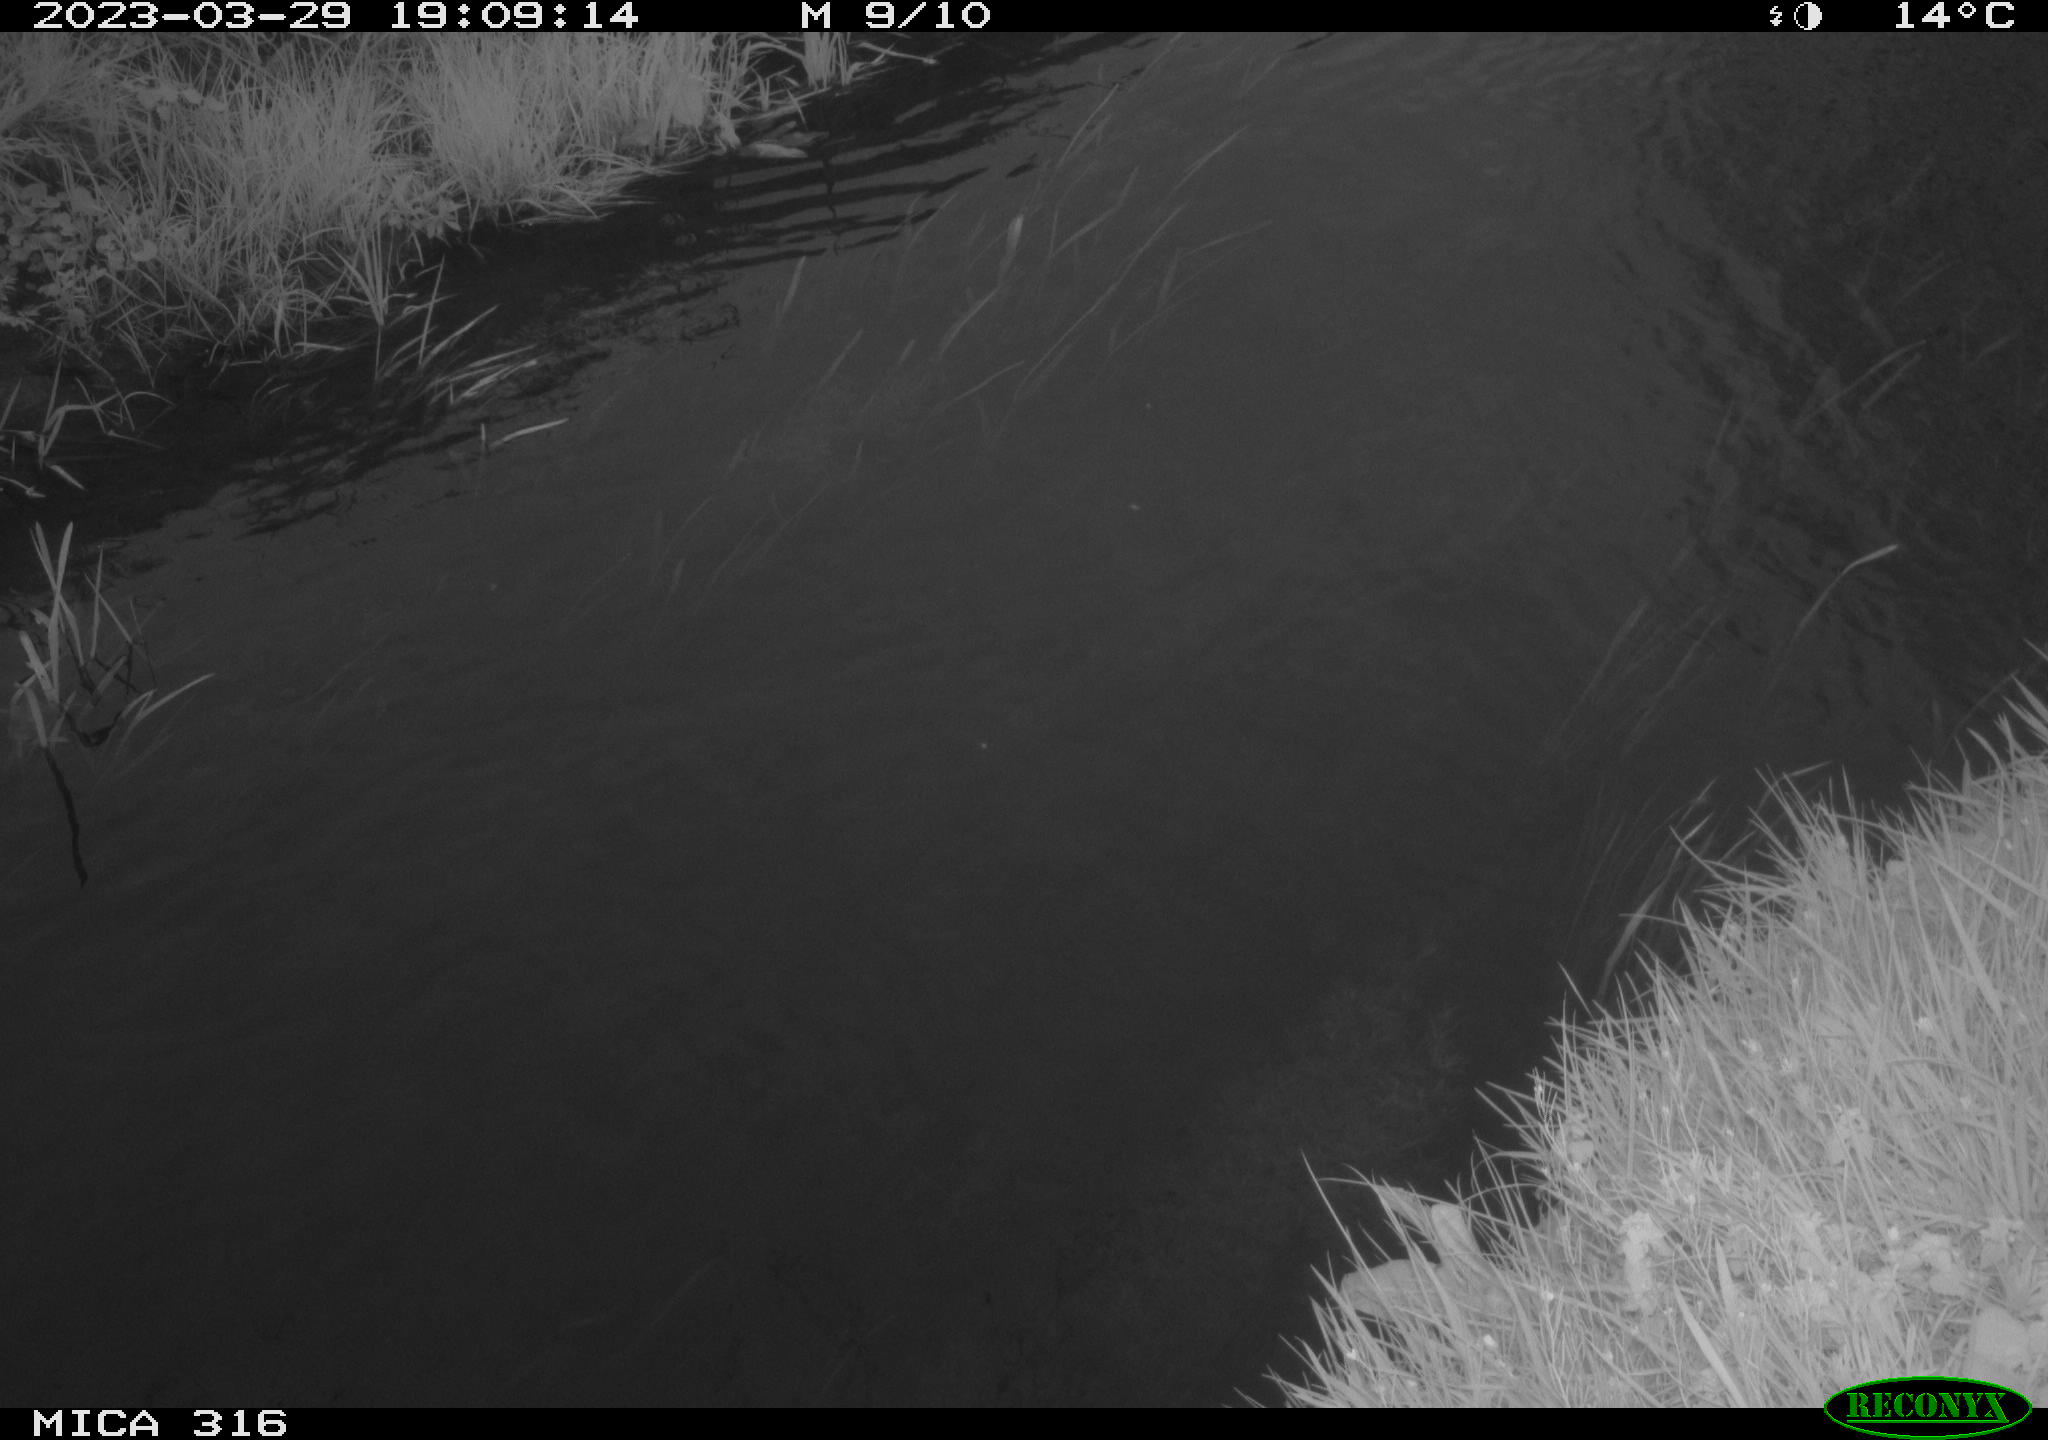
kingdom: Animalia
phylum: Chordata
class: Aves
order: Anseriformes
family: Anatidae
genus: Anas
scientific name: Anas
